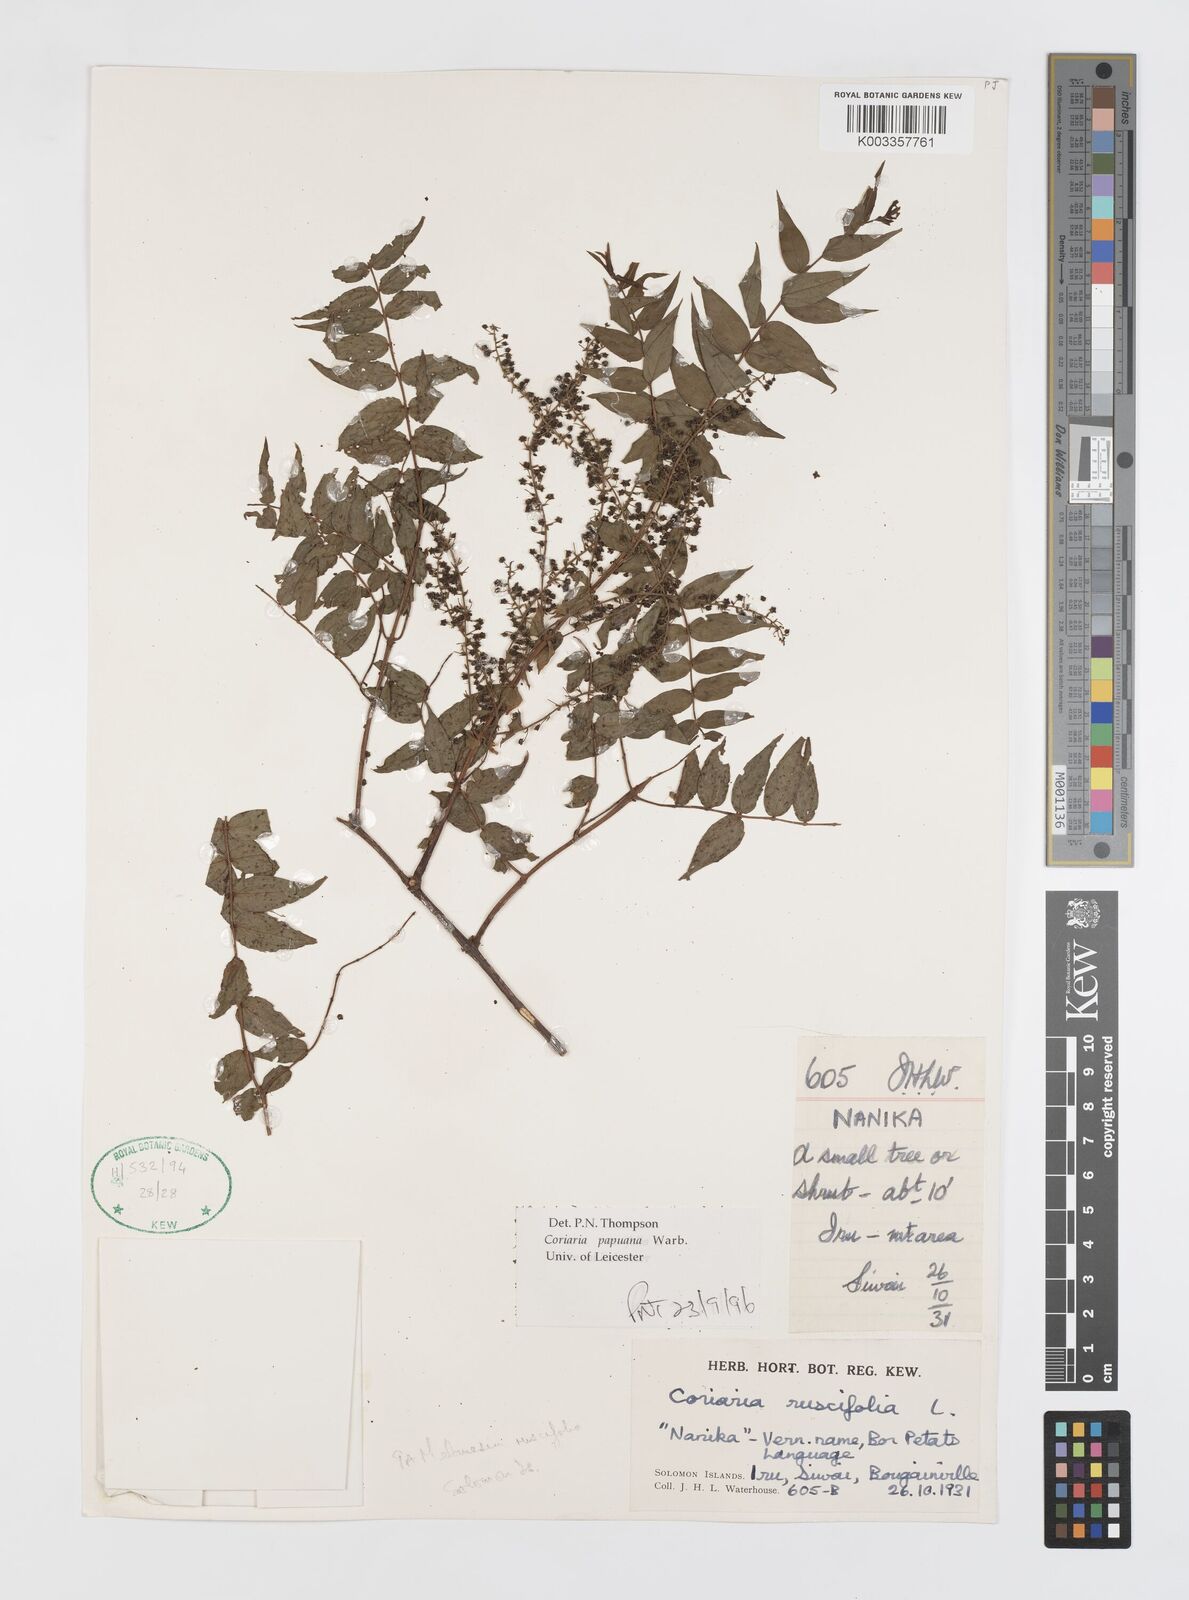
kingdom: Plantae
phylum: Tracheophyta
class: Magnoliopsida
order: Cucurbitales
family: Coriariaceae
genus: Coriaria
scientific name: Coriaria ruscifolia
